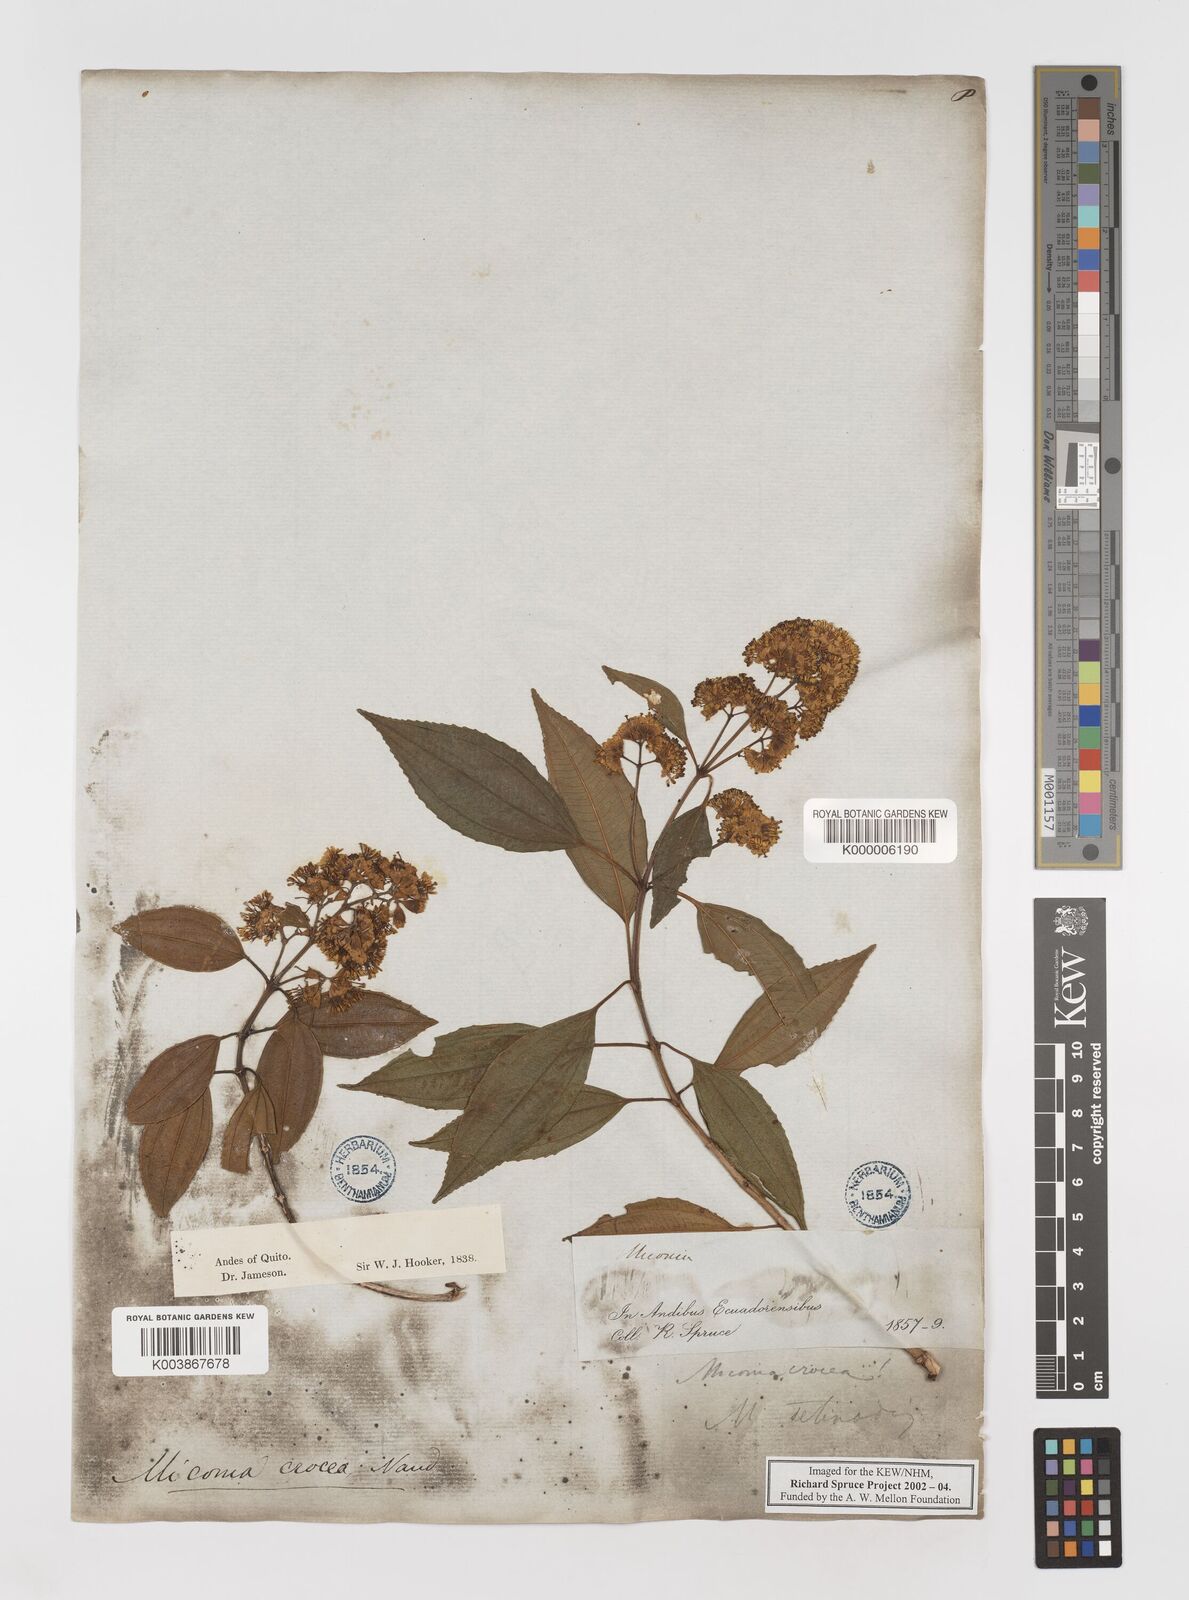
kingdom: Plantae
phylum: Tracheophyta
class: Magnoliopsida
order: Myrtales
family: Melastomataceae
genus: Miconia
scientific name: Miconia crocea
